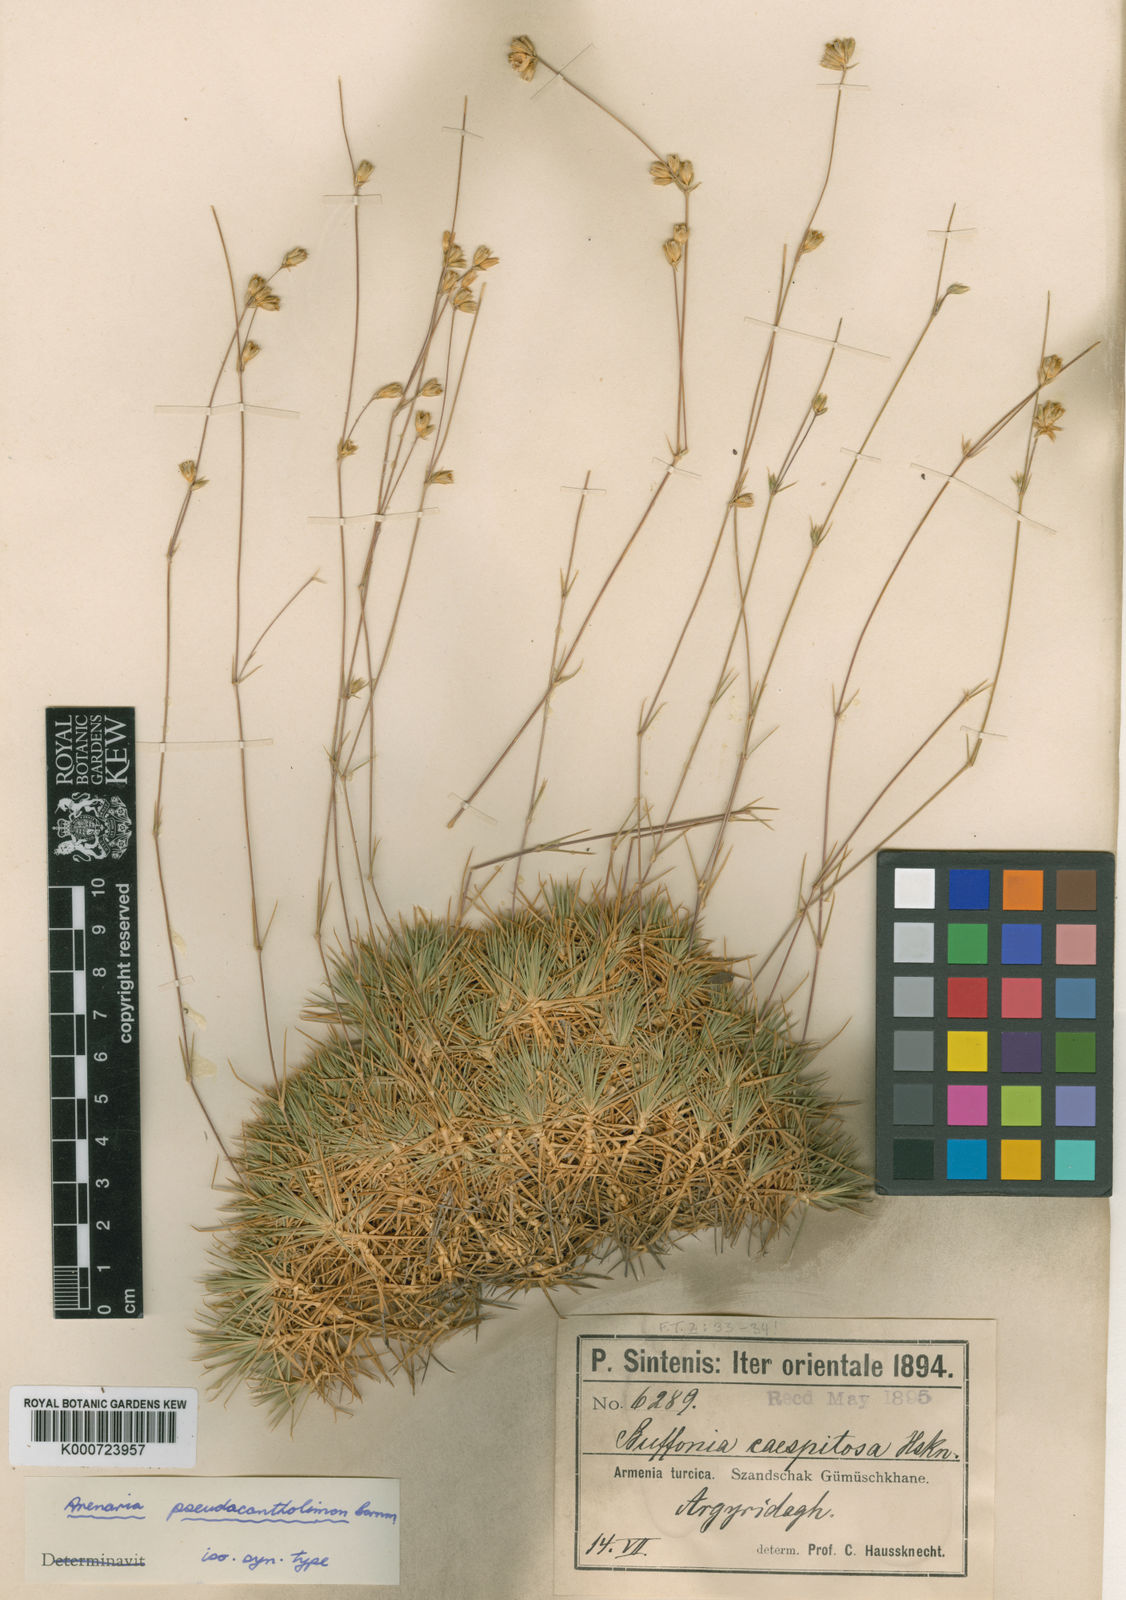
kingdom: Plantae
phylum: Tracheophyta
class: Magnoliopsida
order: Caryophyllales
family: Caryophyllaceae
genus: Eremogone
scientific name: Eremogone pseudacantholimon
